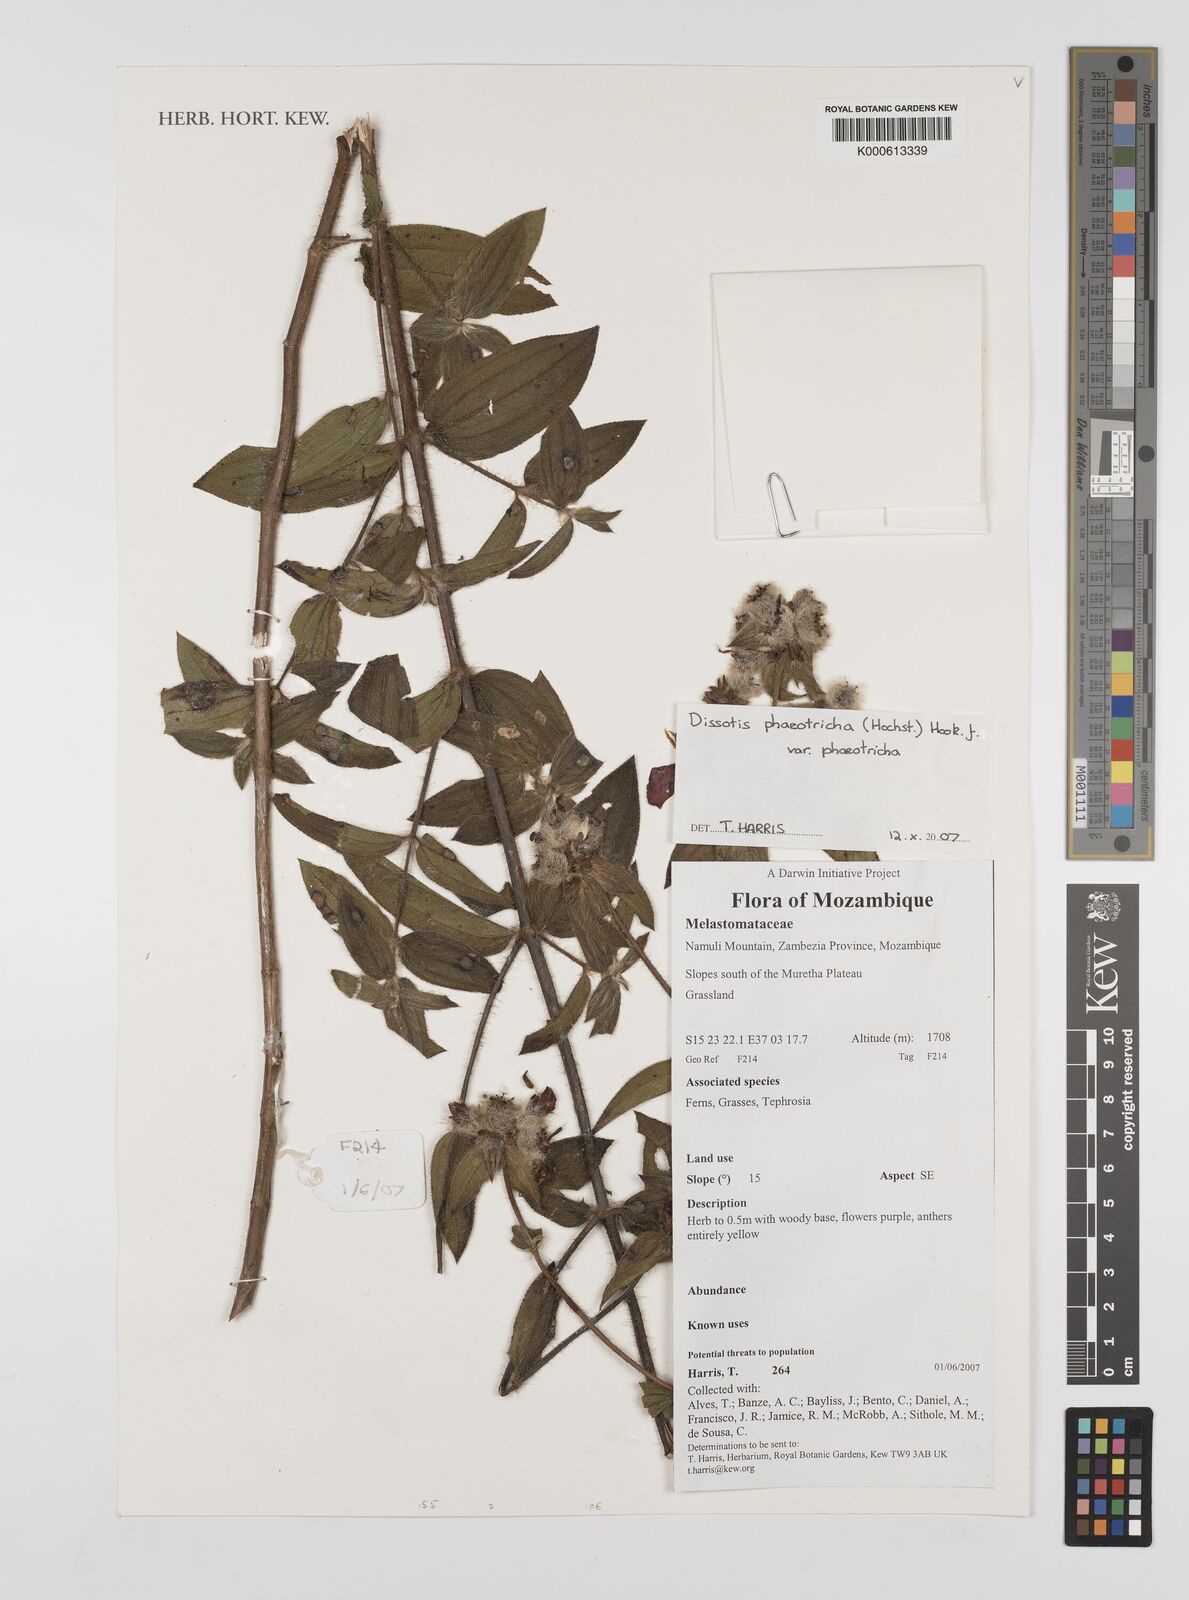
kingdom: Plantae
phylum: Tracheophyta
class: Magnoliopsida
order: Myrtales
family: Melastomataceae
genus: Dissotis
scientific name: Dissotis
